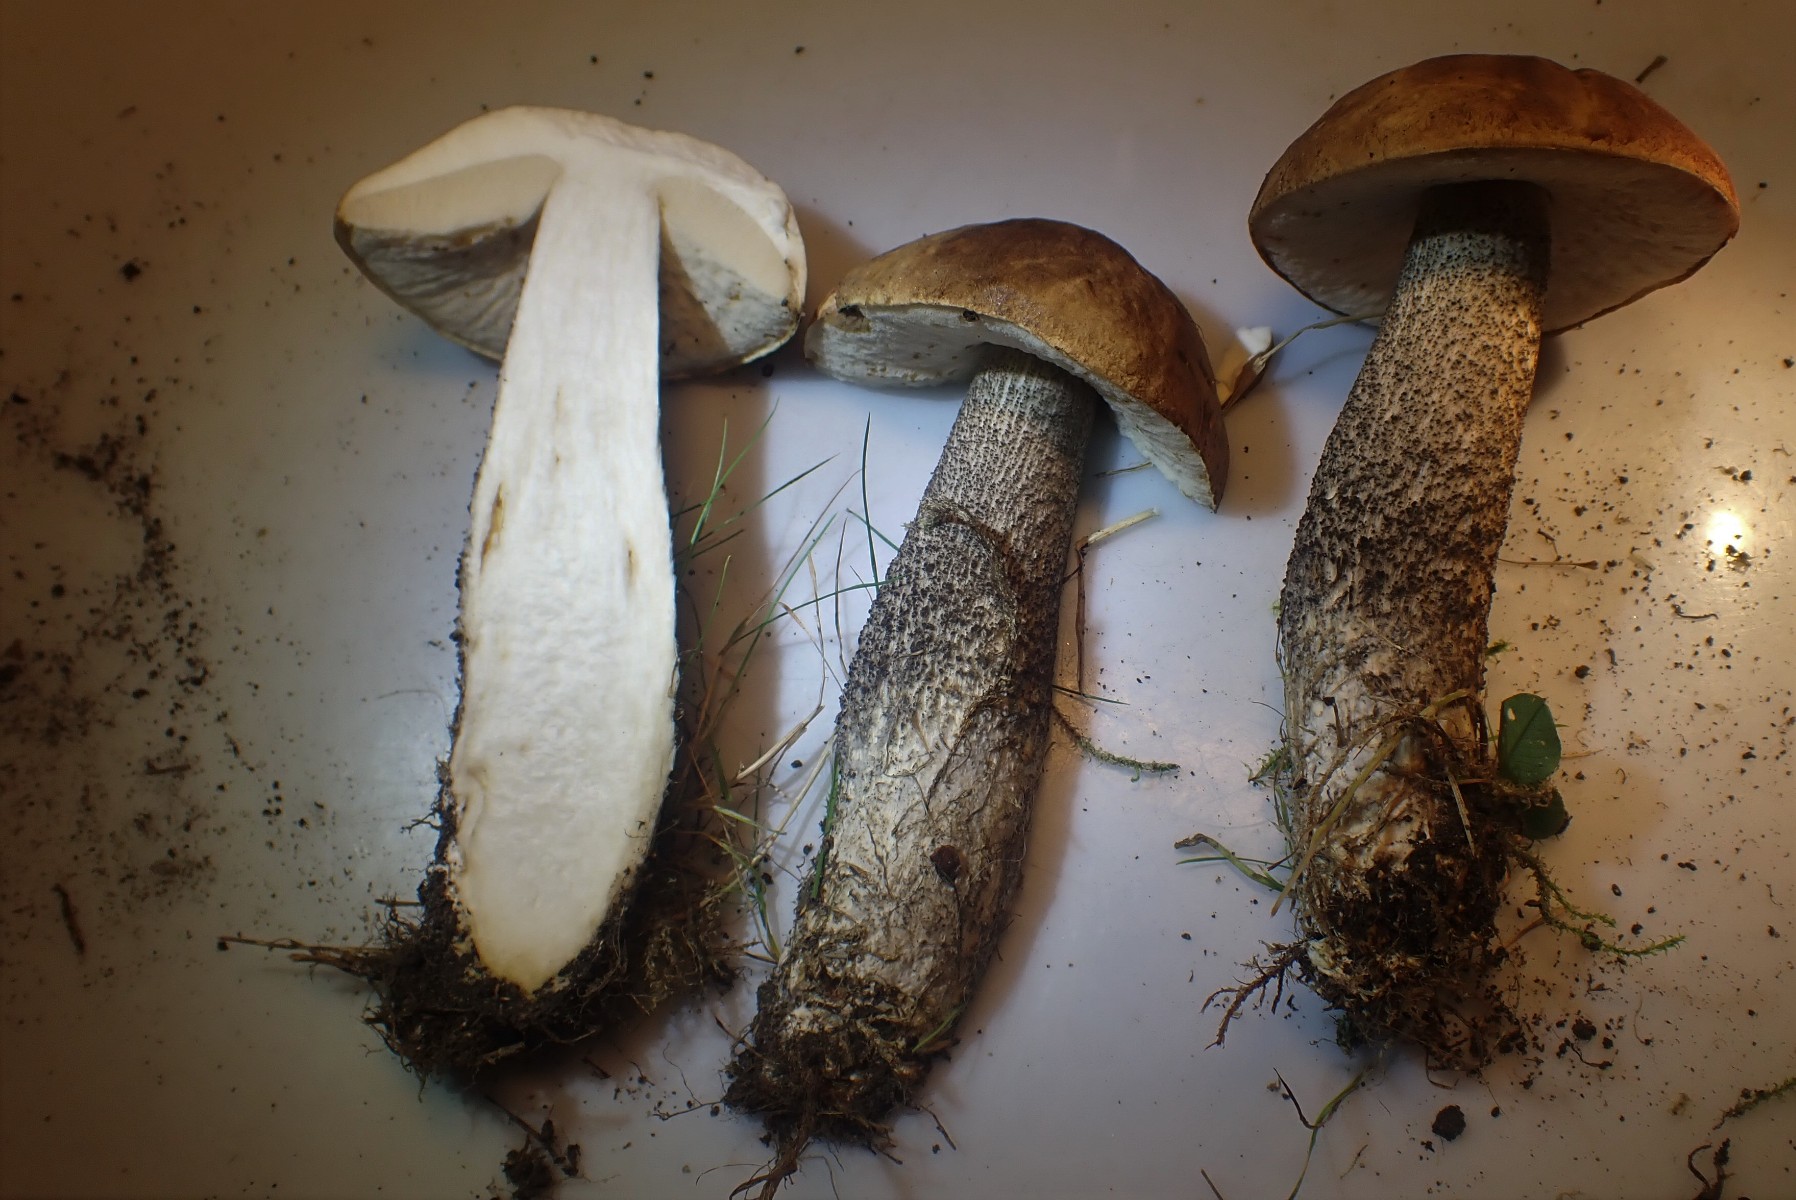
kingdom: Fungi
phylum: Basidiomycota
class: Agaricomycetes
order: Boletales
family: Boletaceae
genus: Leccinum
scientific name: Leccinum scabrum
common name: brun skælrørhat
